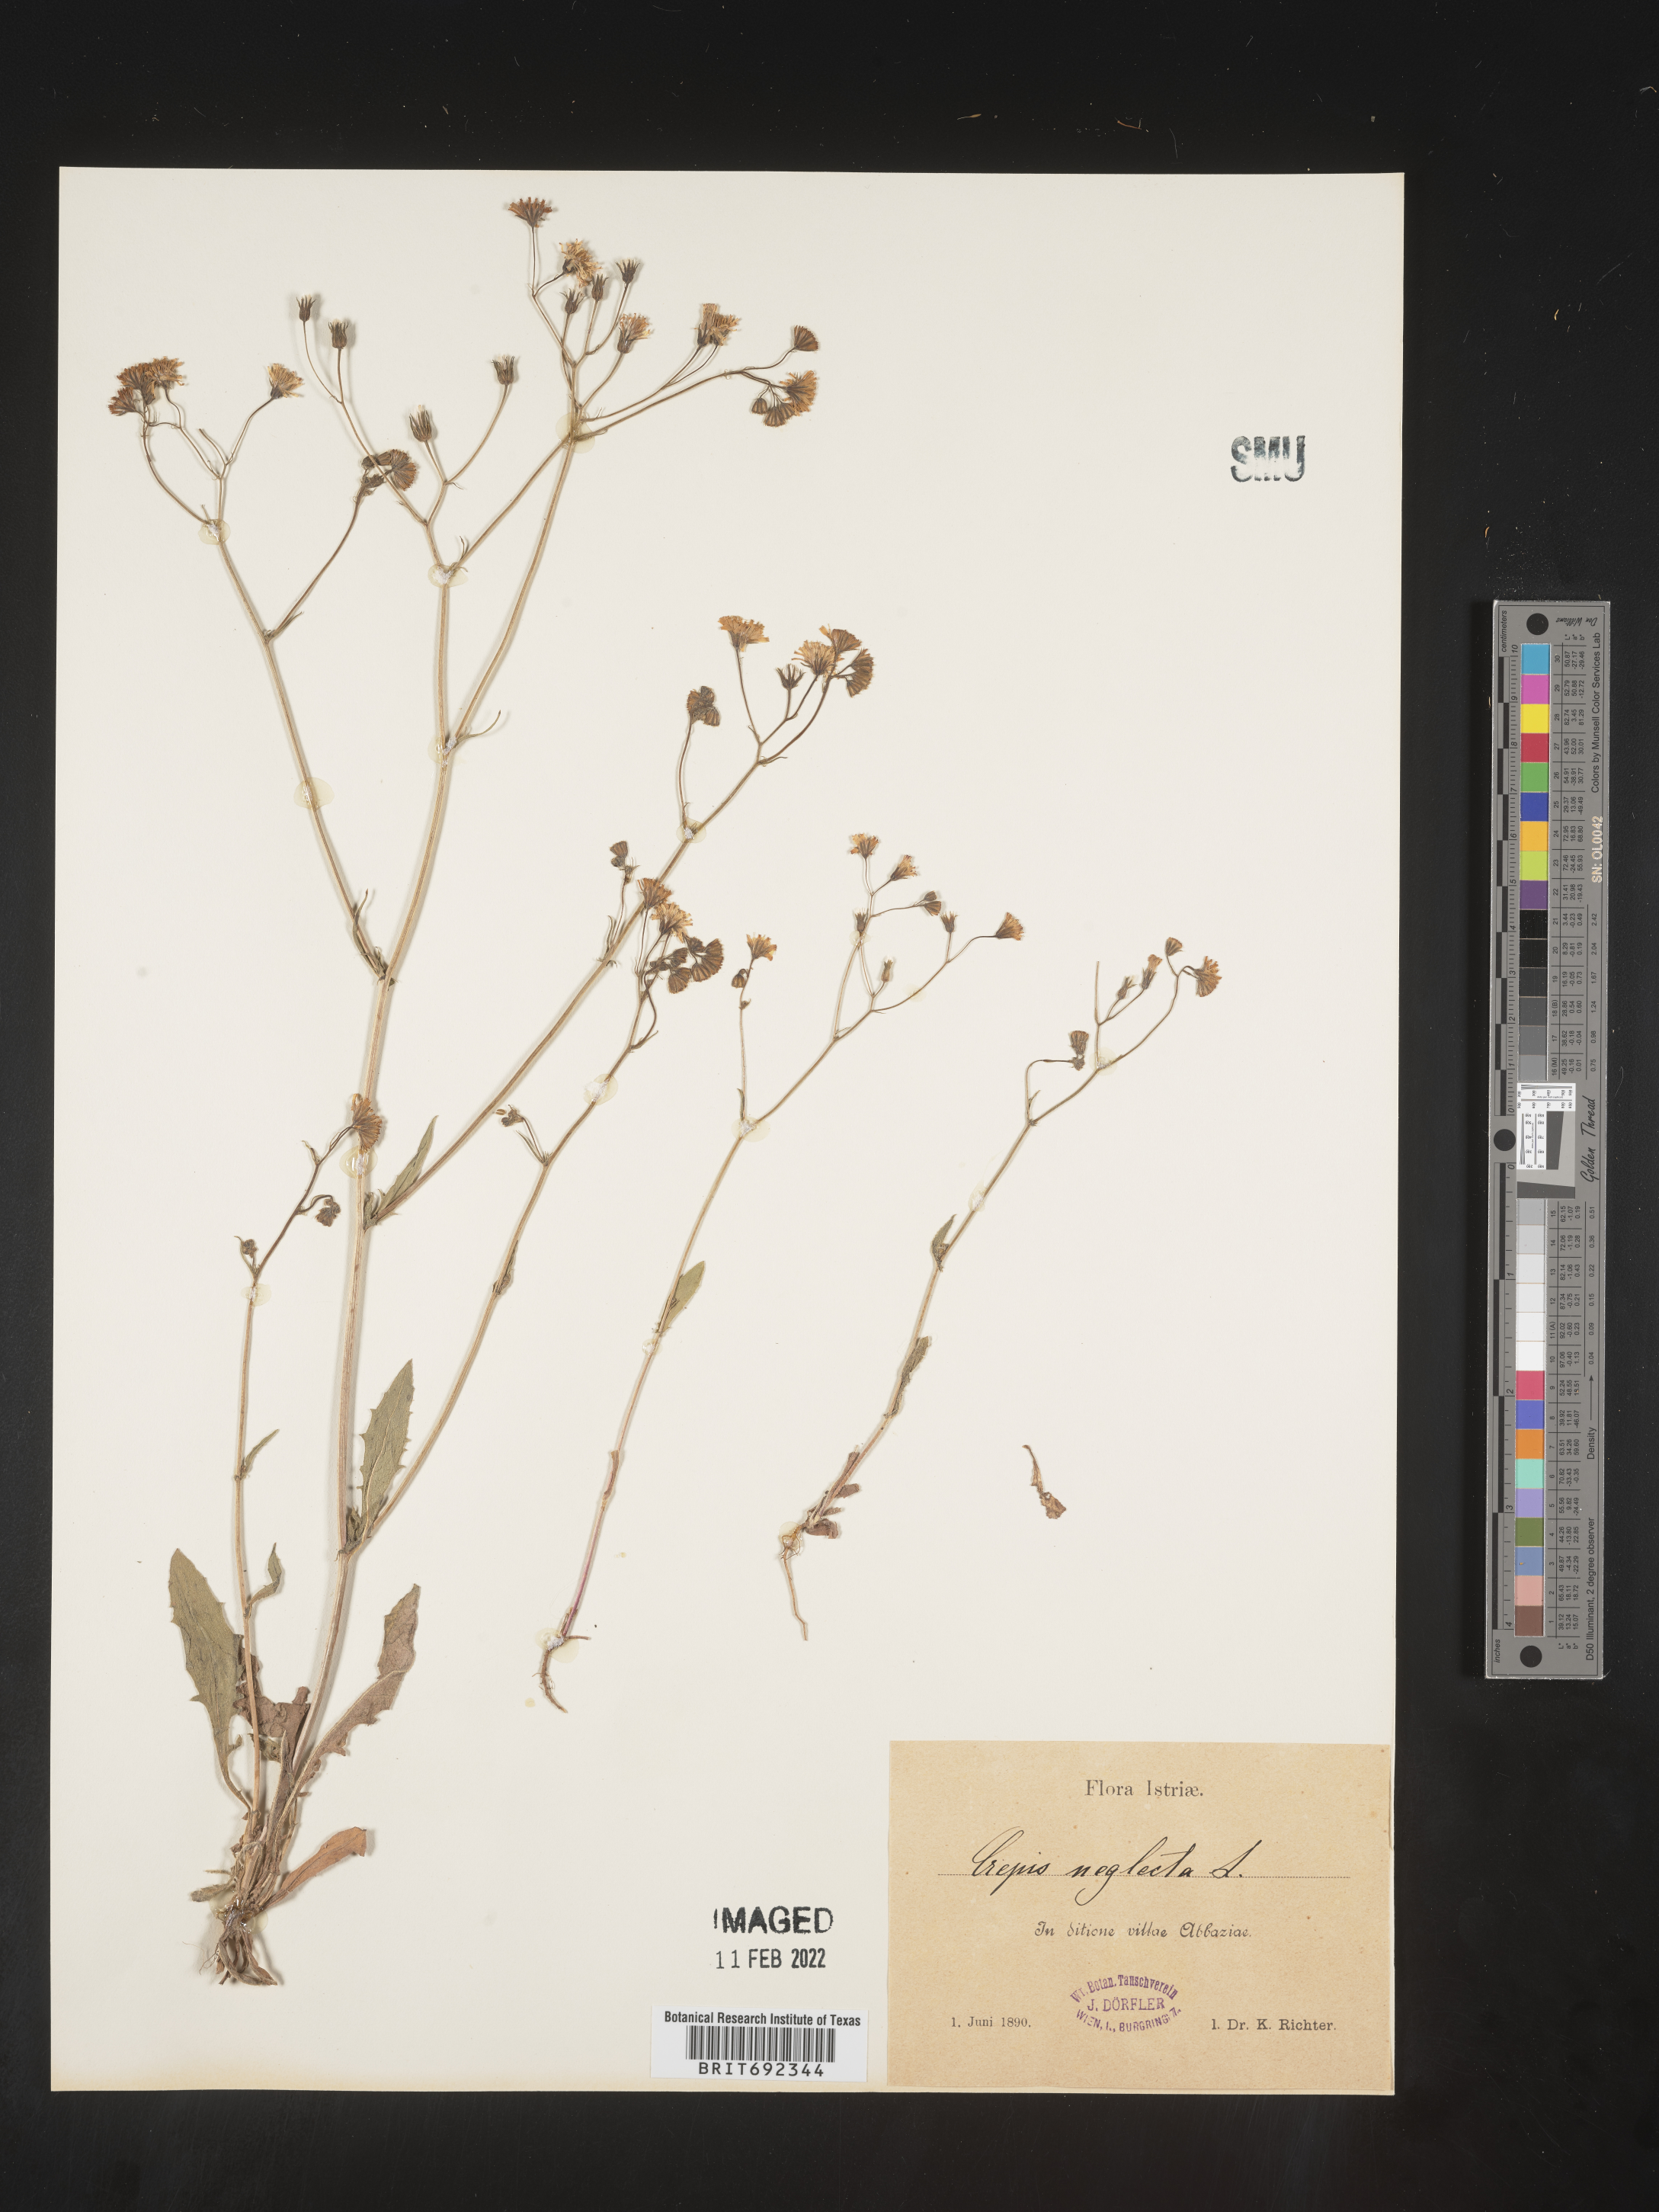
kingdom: Plantae
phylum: Tracheophyta
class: Magnoliopsida
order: Asterales
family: Asteraceae
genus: Crepis
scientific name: Crepis
